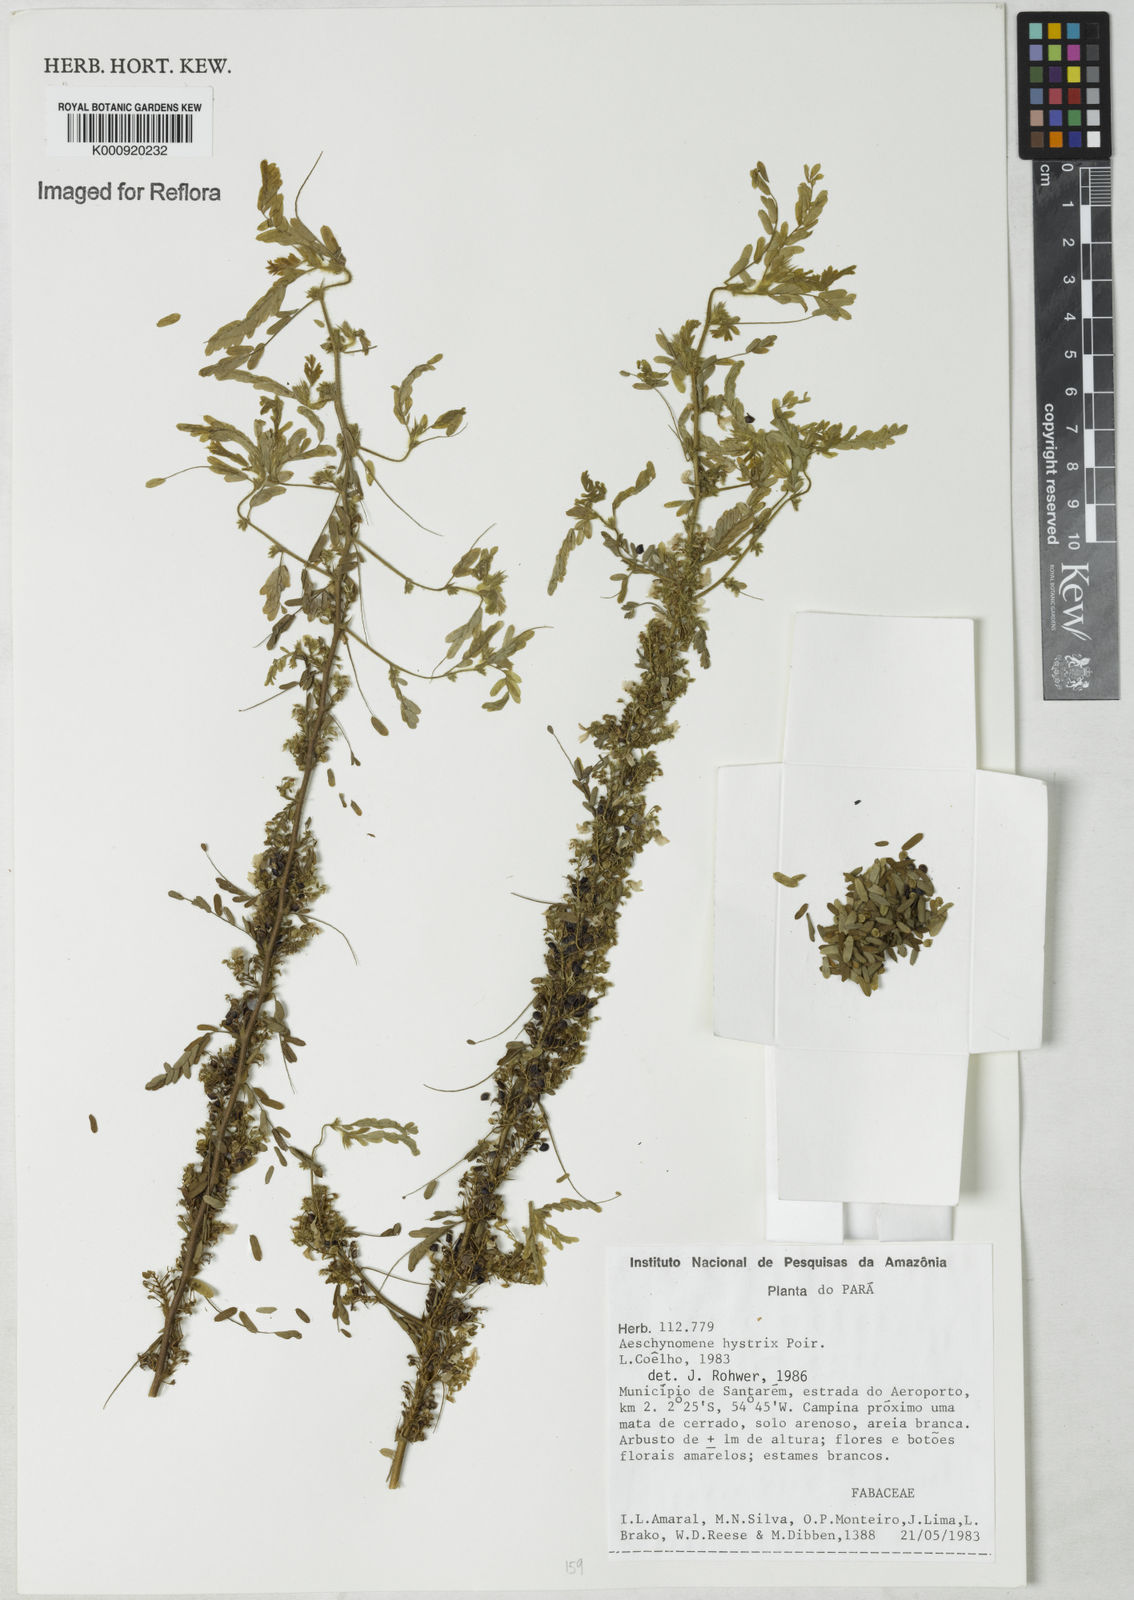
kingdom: Plantae
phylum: Tracheophyta
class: Magnoliopsida
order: Fabales
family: Fabaceae
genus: Ctenodon
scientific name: Ctenodon histrix
